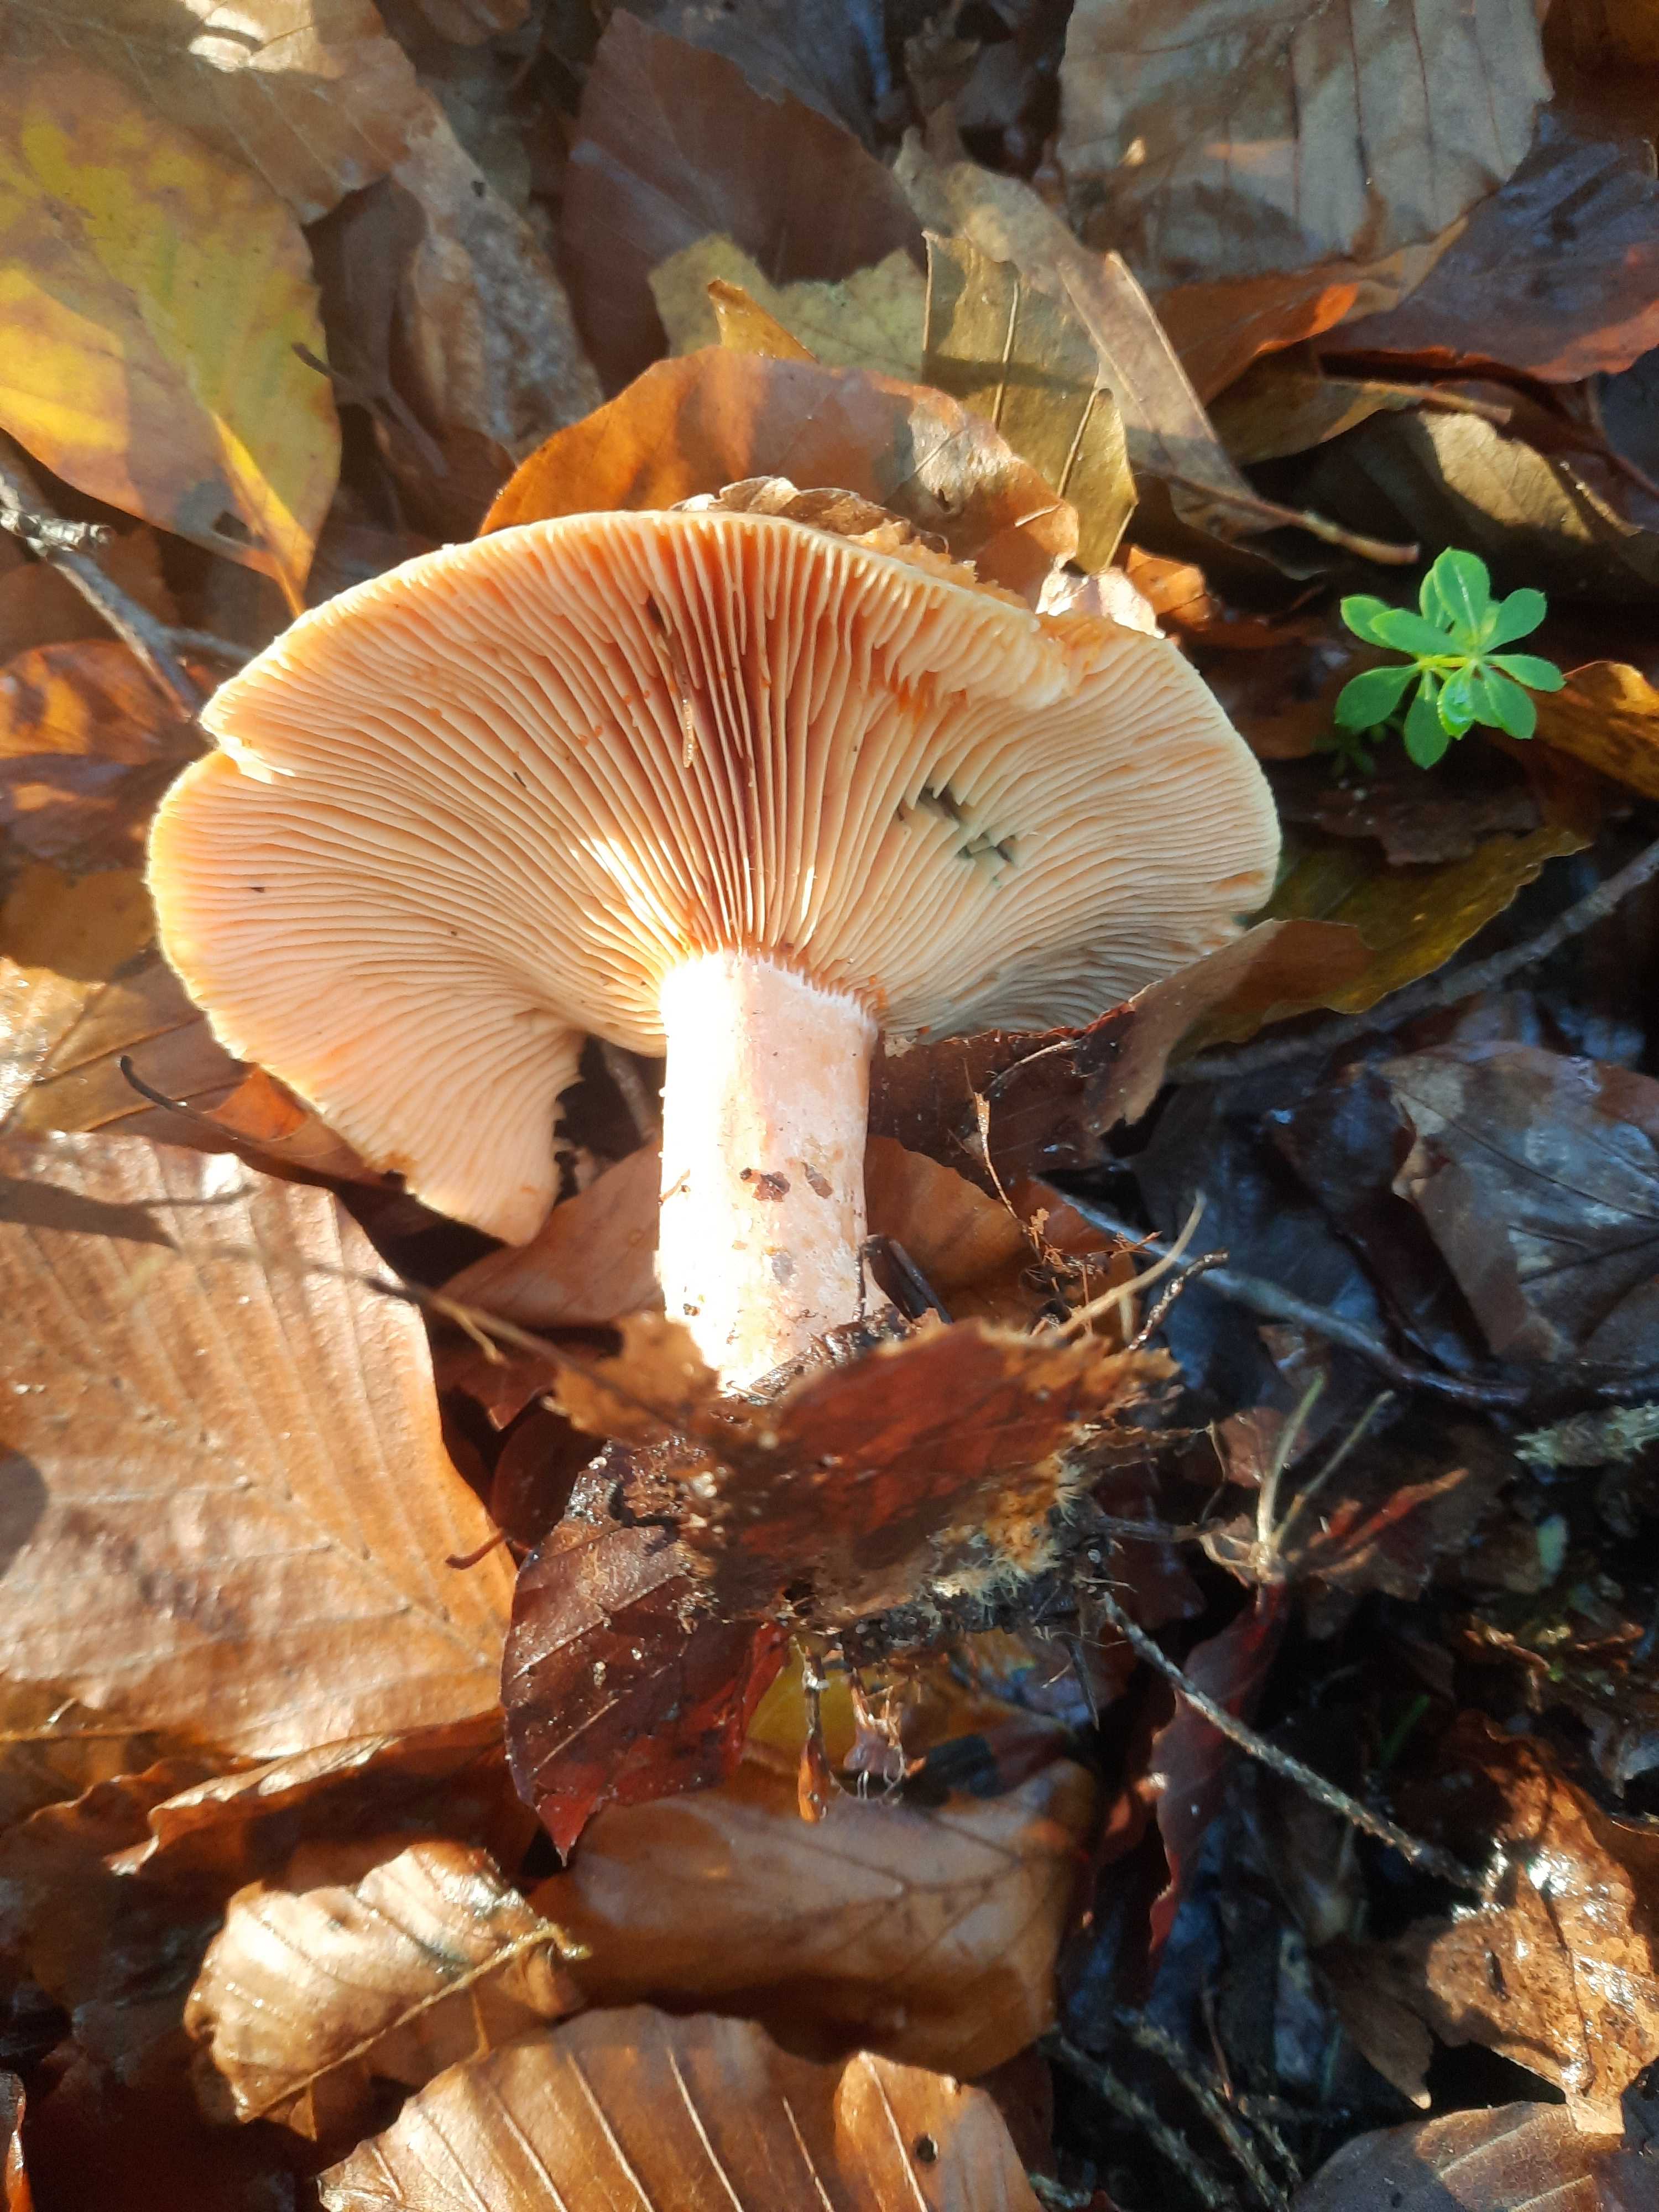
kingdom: Fungi
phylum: Basidiomycota
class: Agaricomycetes
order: Russulales
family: Russulaceae
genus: Lactarius
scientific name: Lactarius deterrimus
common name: gran-mælkehat
